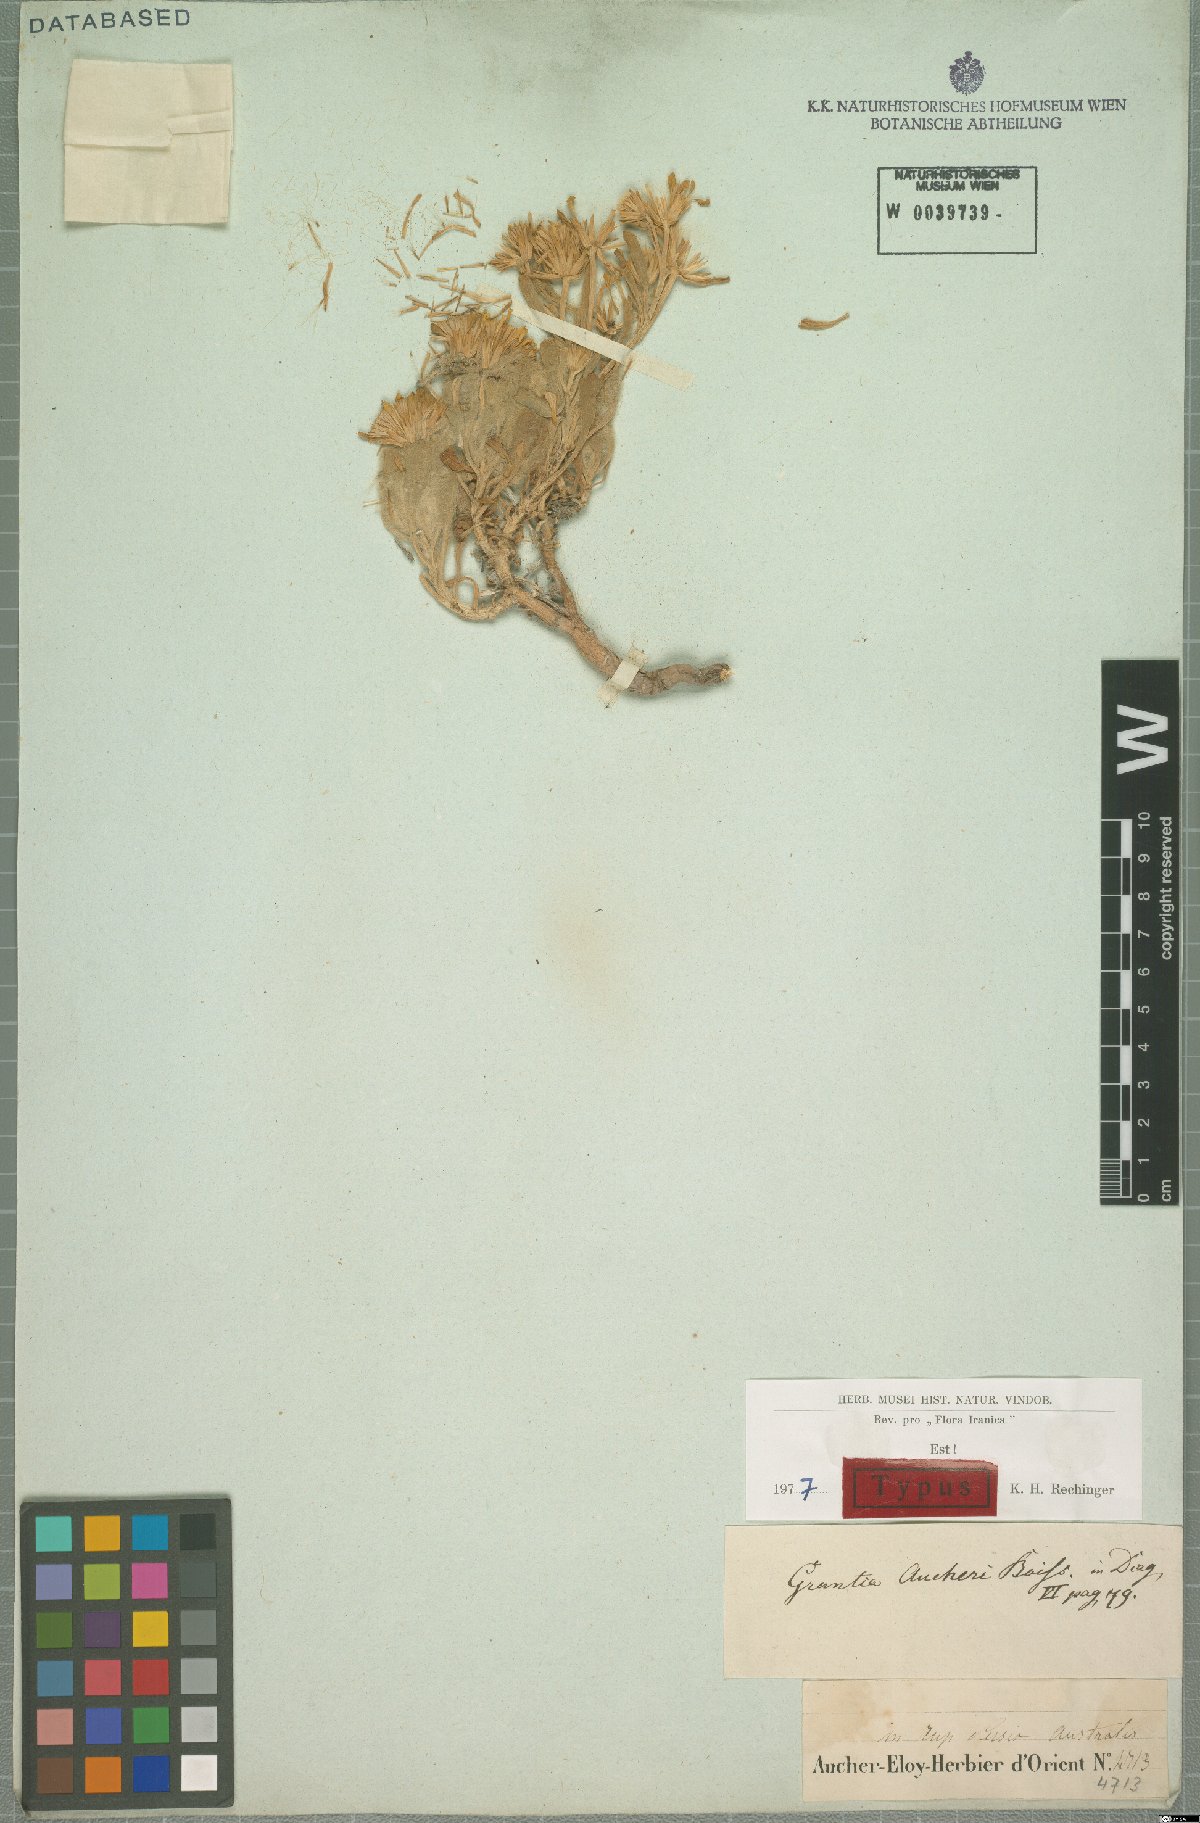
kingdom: Plantae
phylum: Tracheophyta
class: Magnoliopsida
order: Asterales
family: Asteraceae
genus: Iphiona
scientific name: Iphiona aucheri
